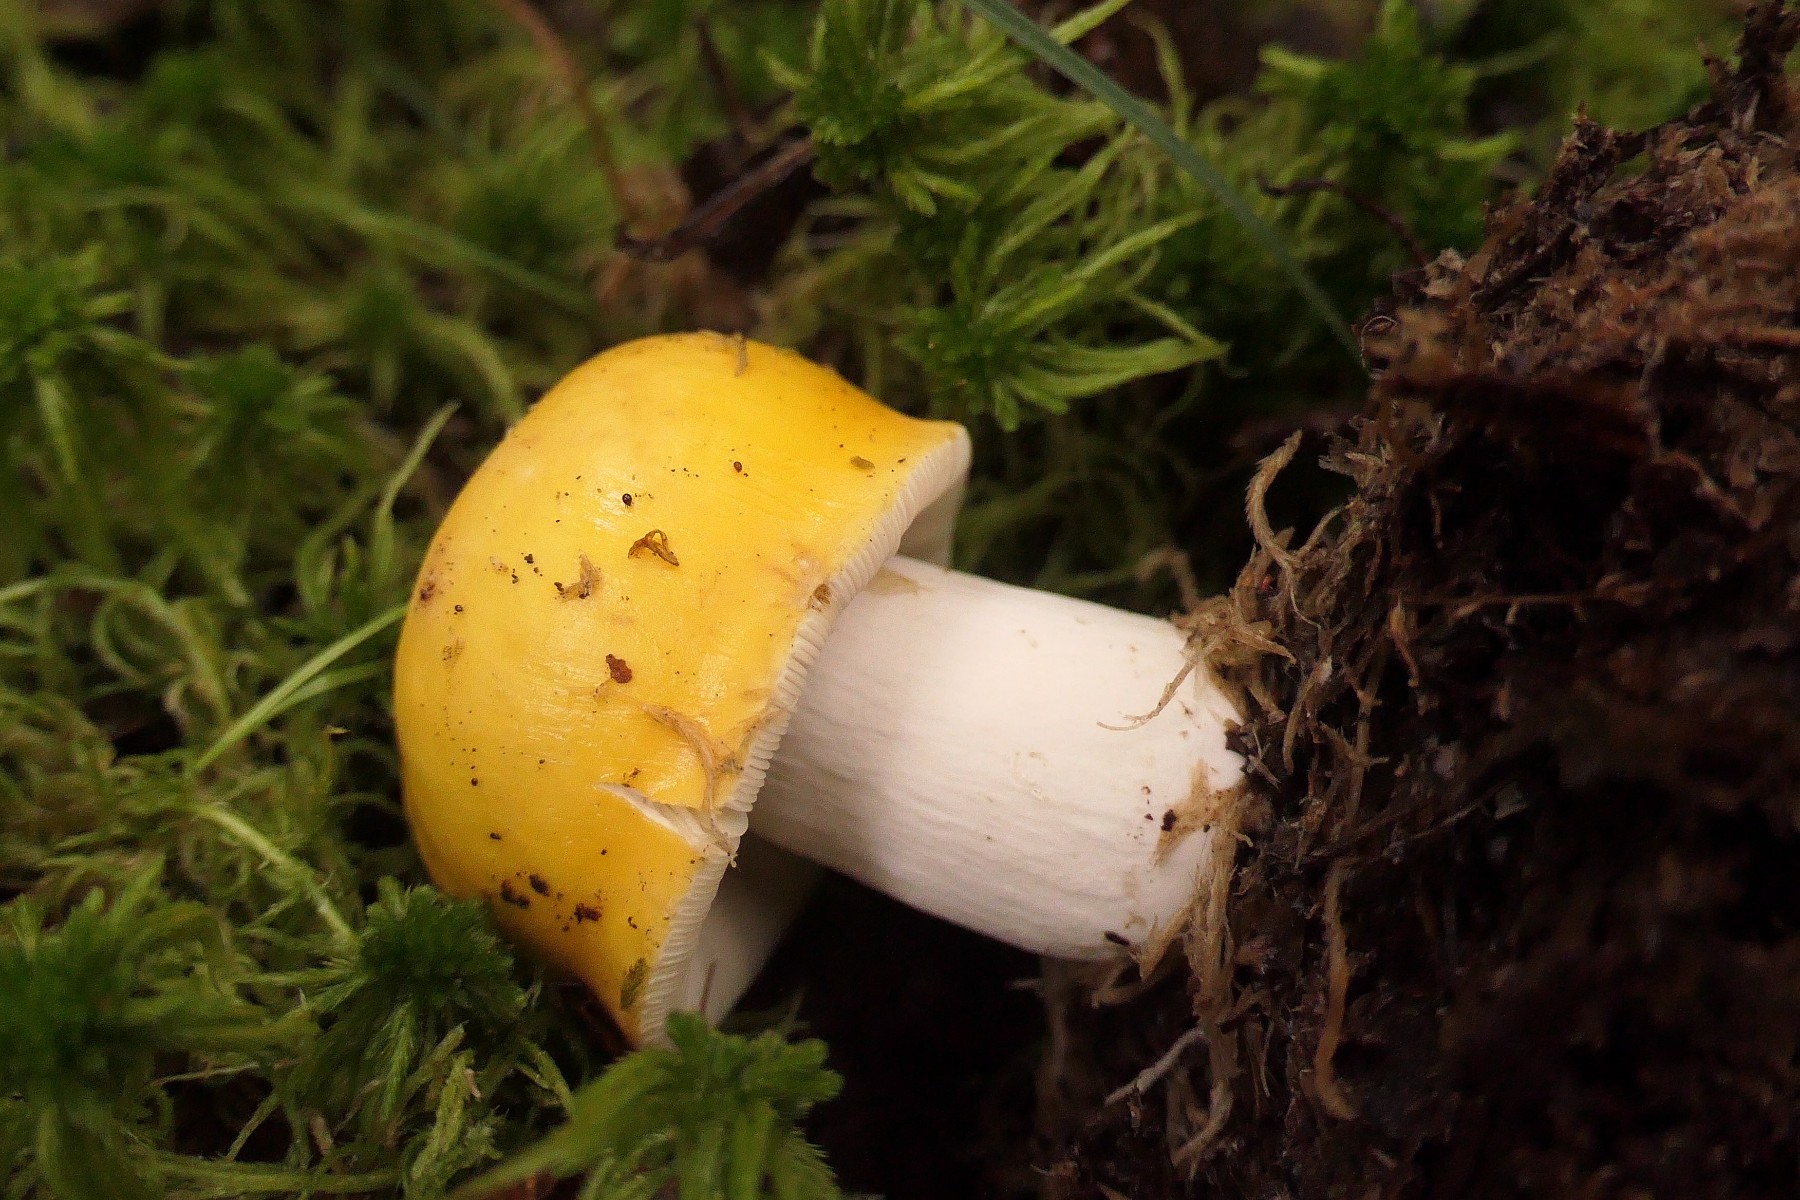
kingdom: Fungi
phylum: Basidiomycota
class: Agaricomycetes
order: Russulales
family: Russulaceae
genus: Russula
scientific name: Russula claroflava
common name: birke-skørhat
